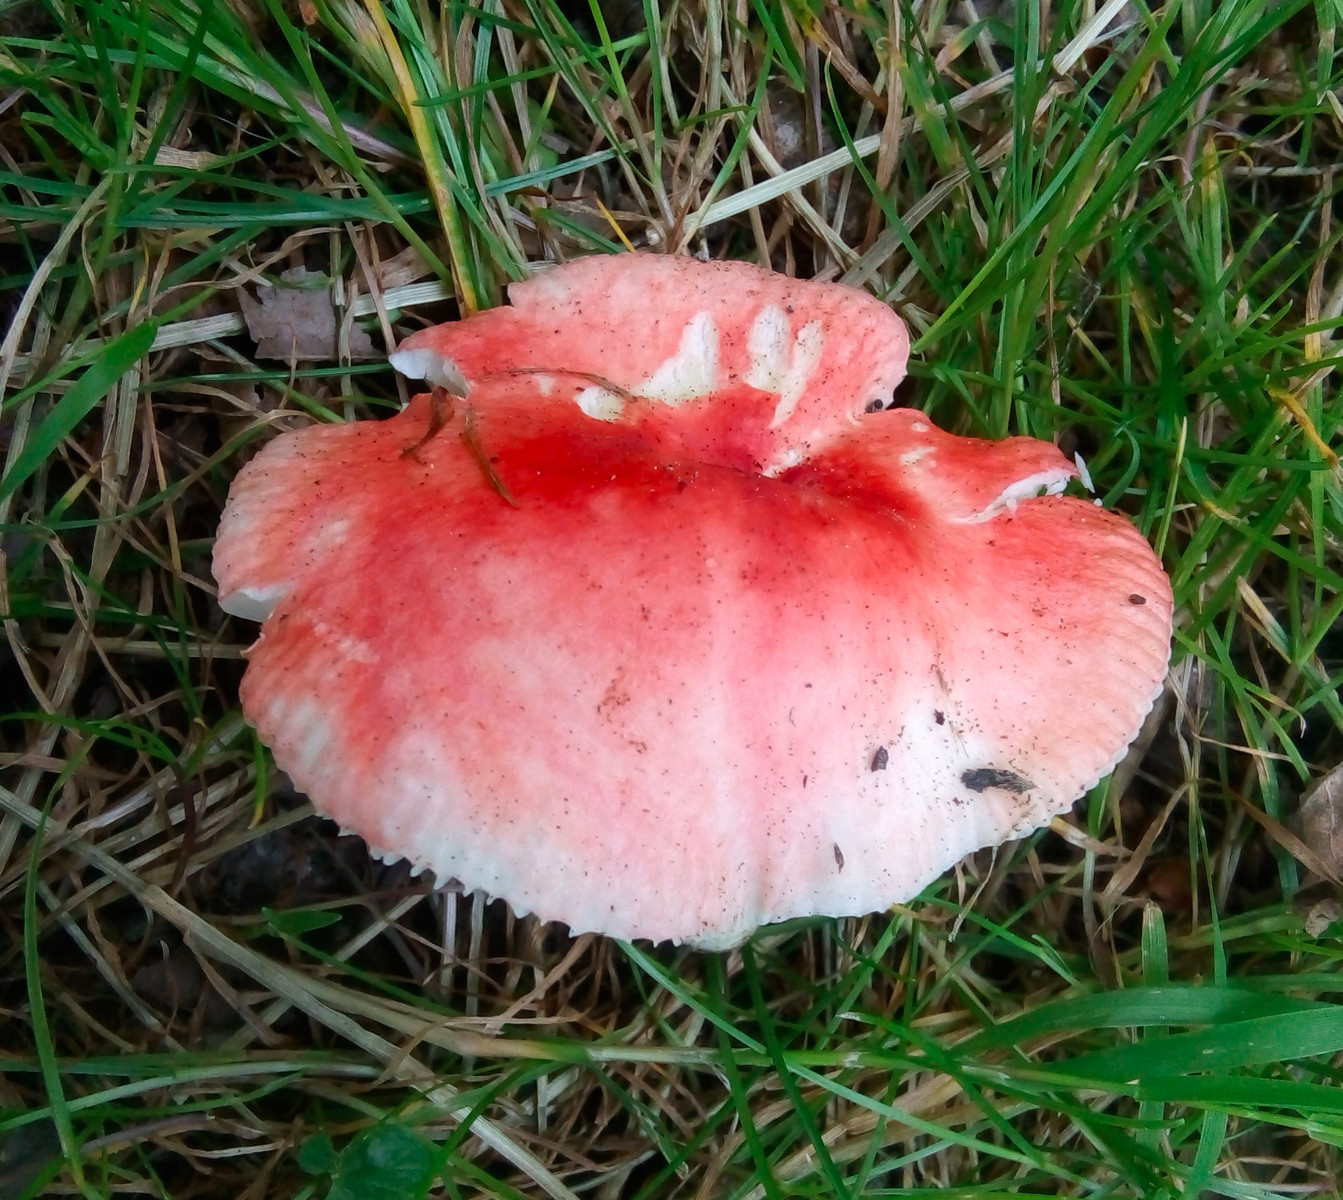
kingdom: Fungi
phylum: Basidiomycota
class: Agaricomycetes
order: Russulales
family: Russulaceae
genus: Russula
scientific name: Russula luteotacta
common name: gulplettet gift-skørhat
